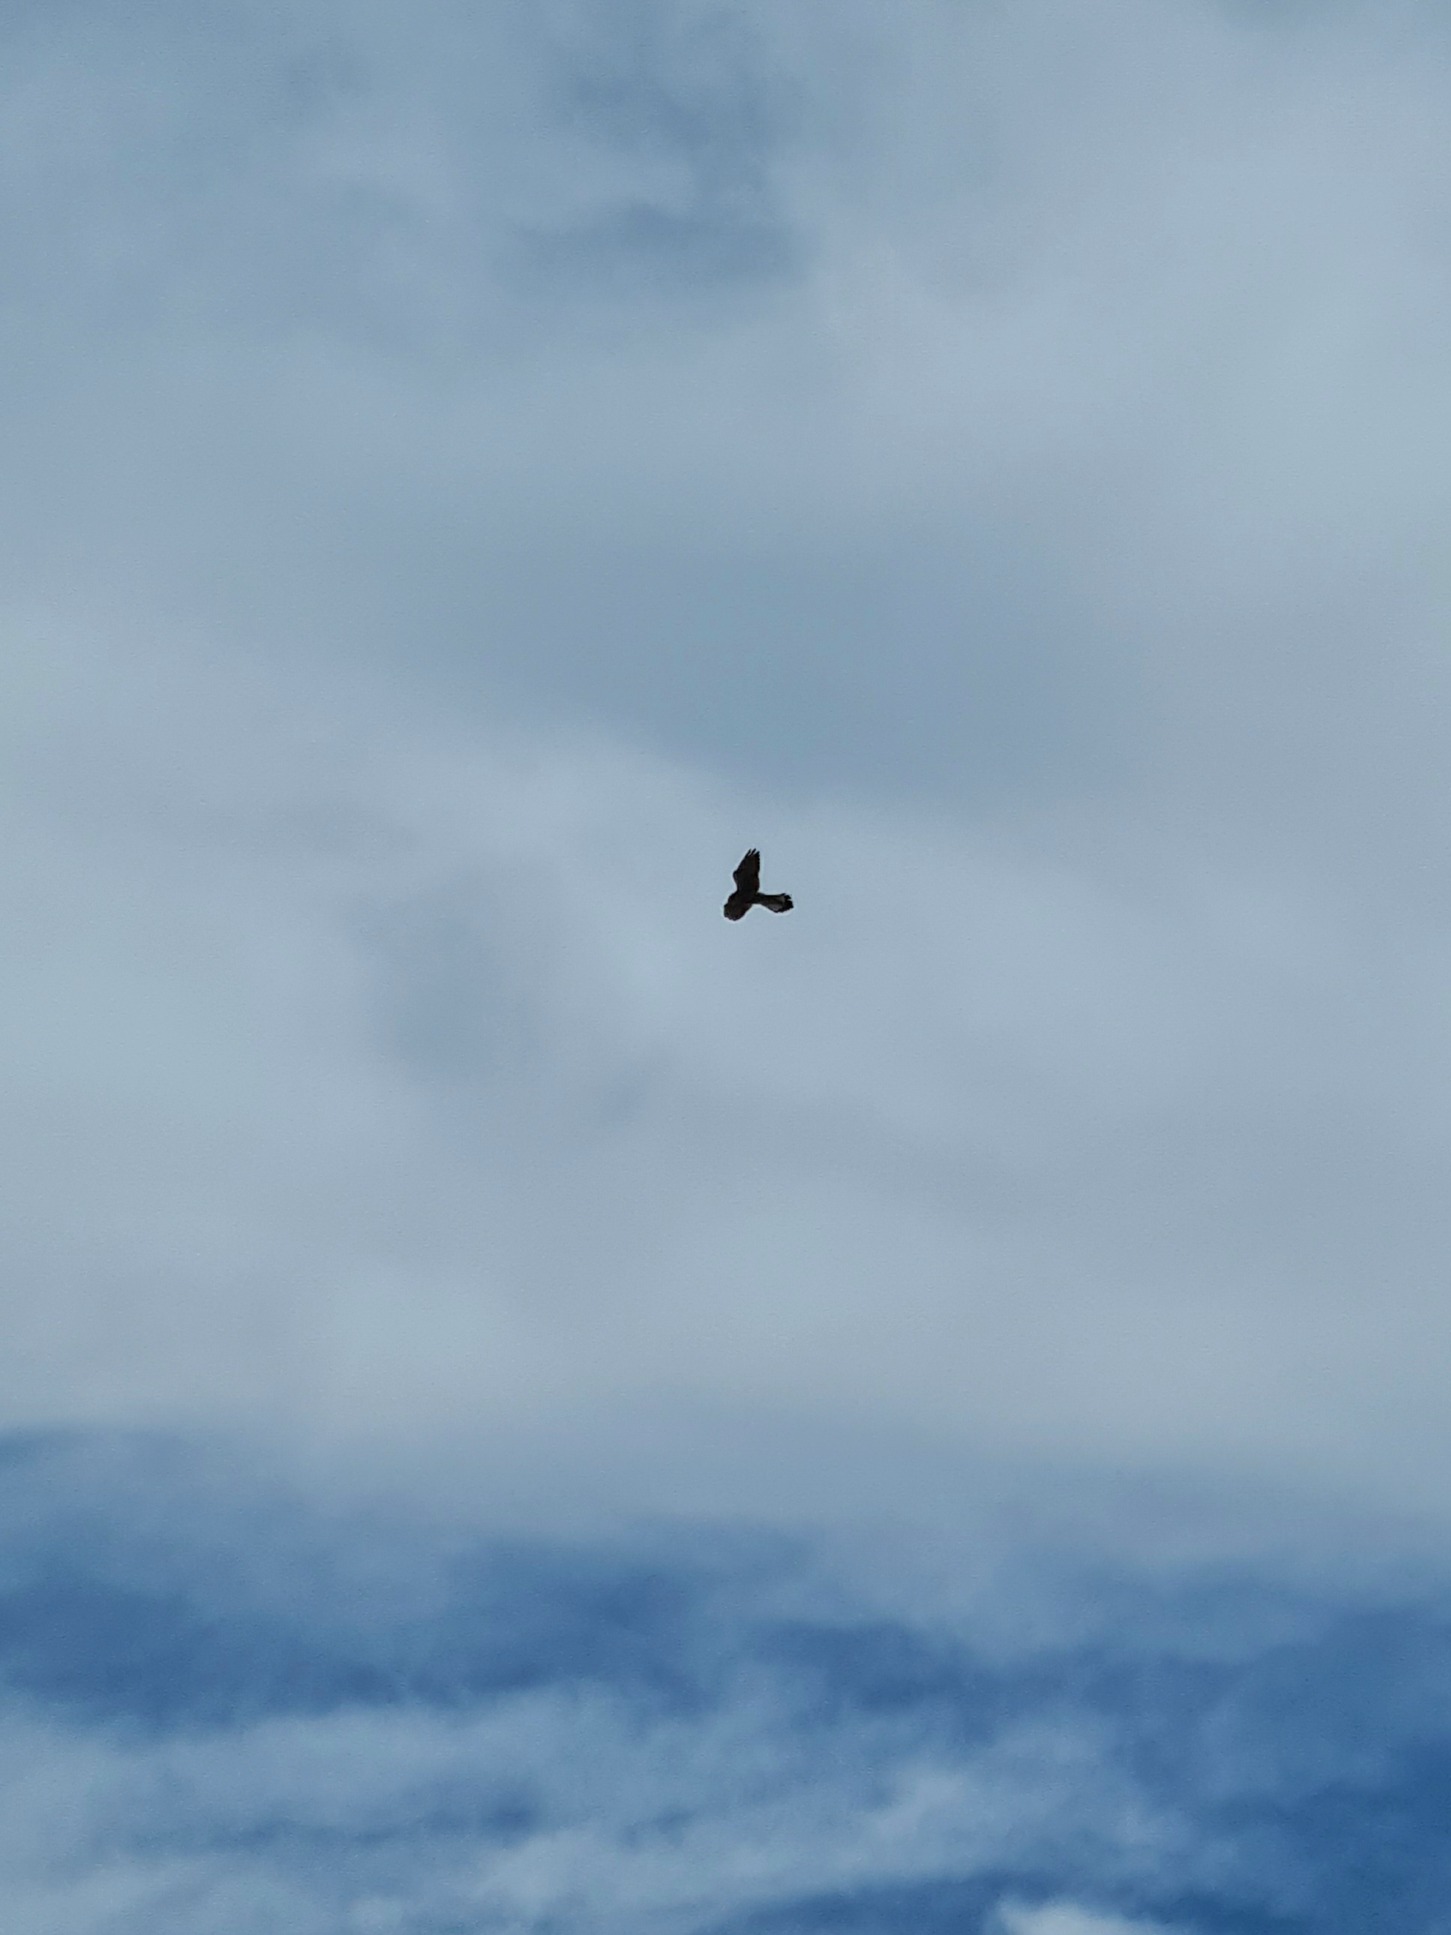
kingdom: Animalia
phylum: Chordata
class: Aves
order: Falconiformes
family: Falconidae
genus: Falco
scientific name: Falco tinnunculus
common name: Tårnfalk
